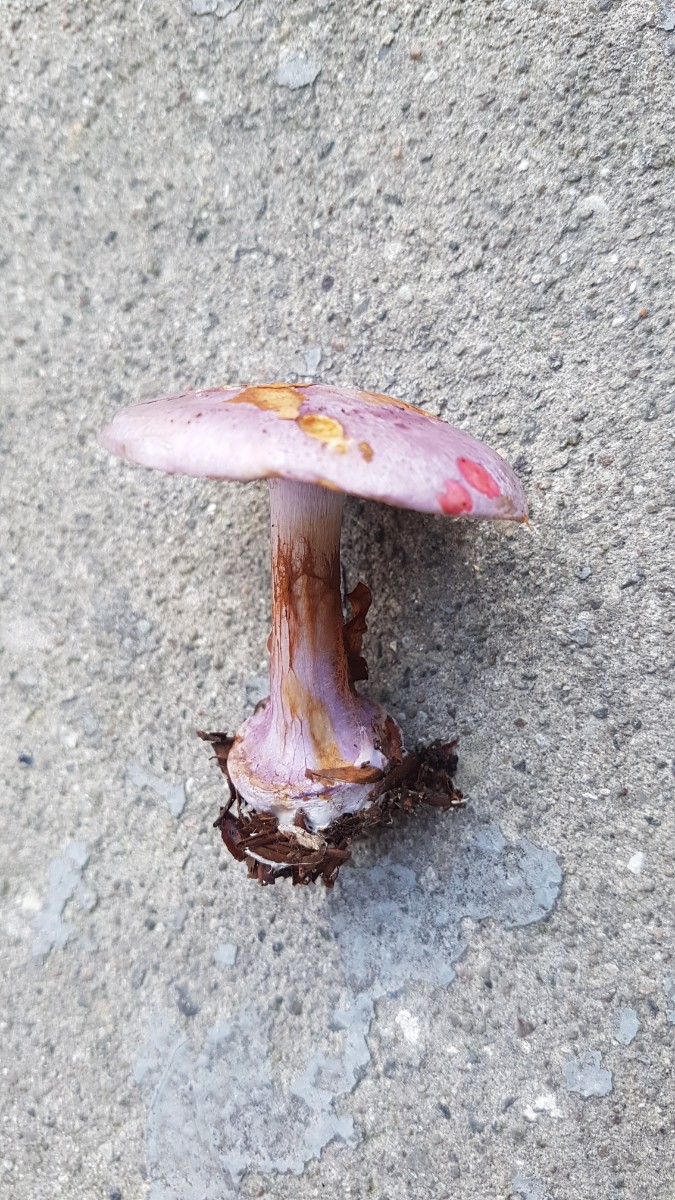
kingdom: Fungi
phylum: Basidiomycota
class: Agaricomycetes
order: Agaricales
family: Cortinariaceae
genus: Calonarius
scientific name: Calonarius sodagnitus
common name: violblå slørhat
